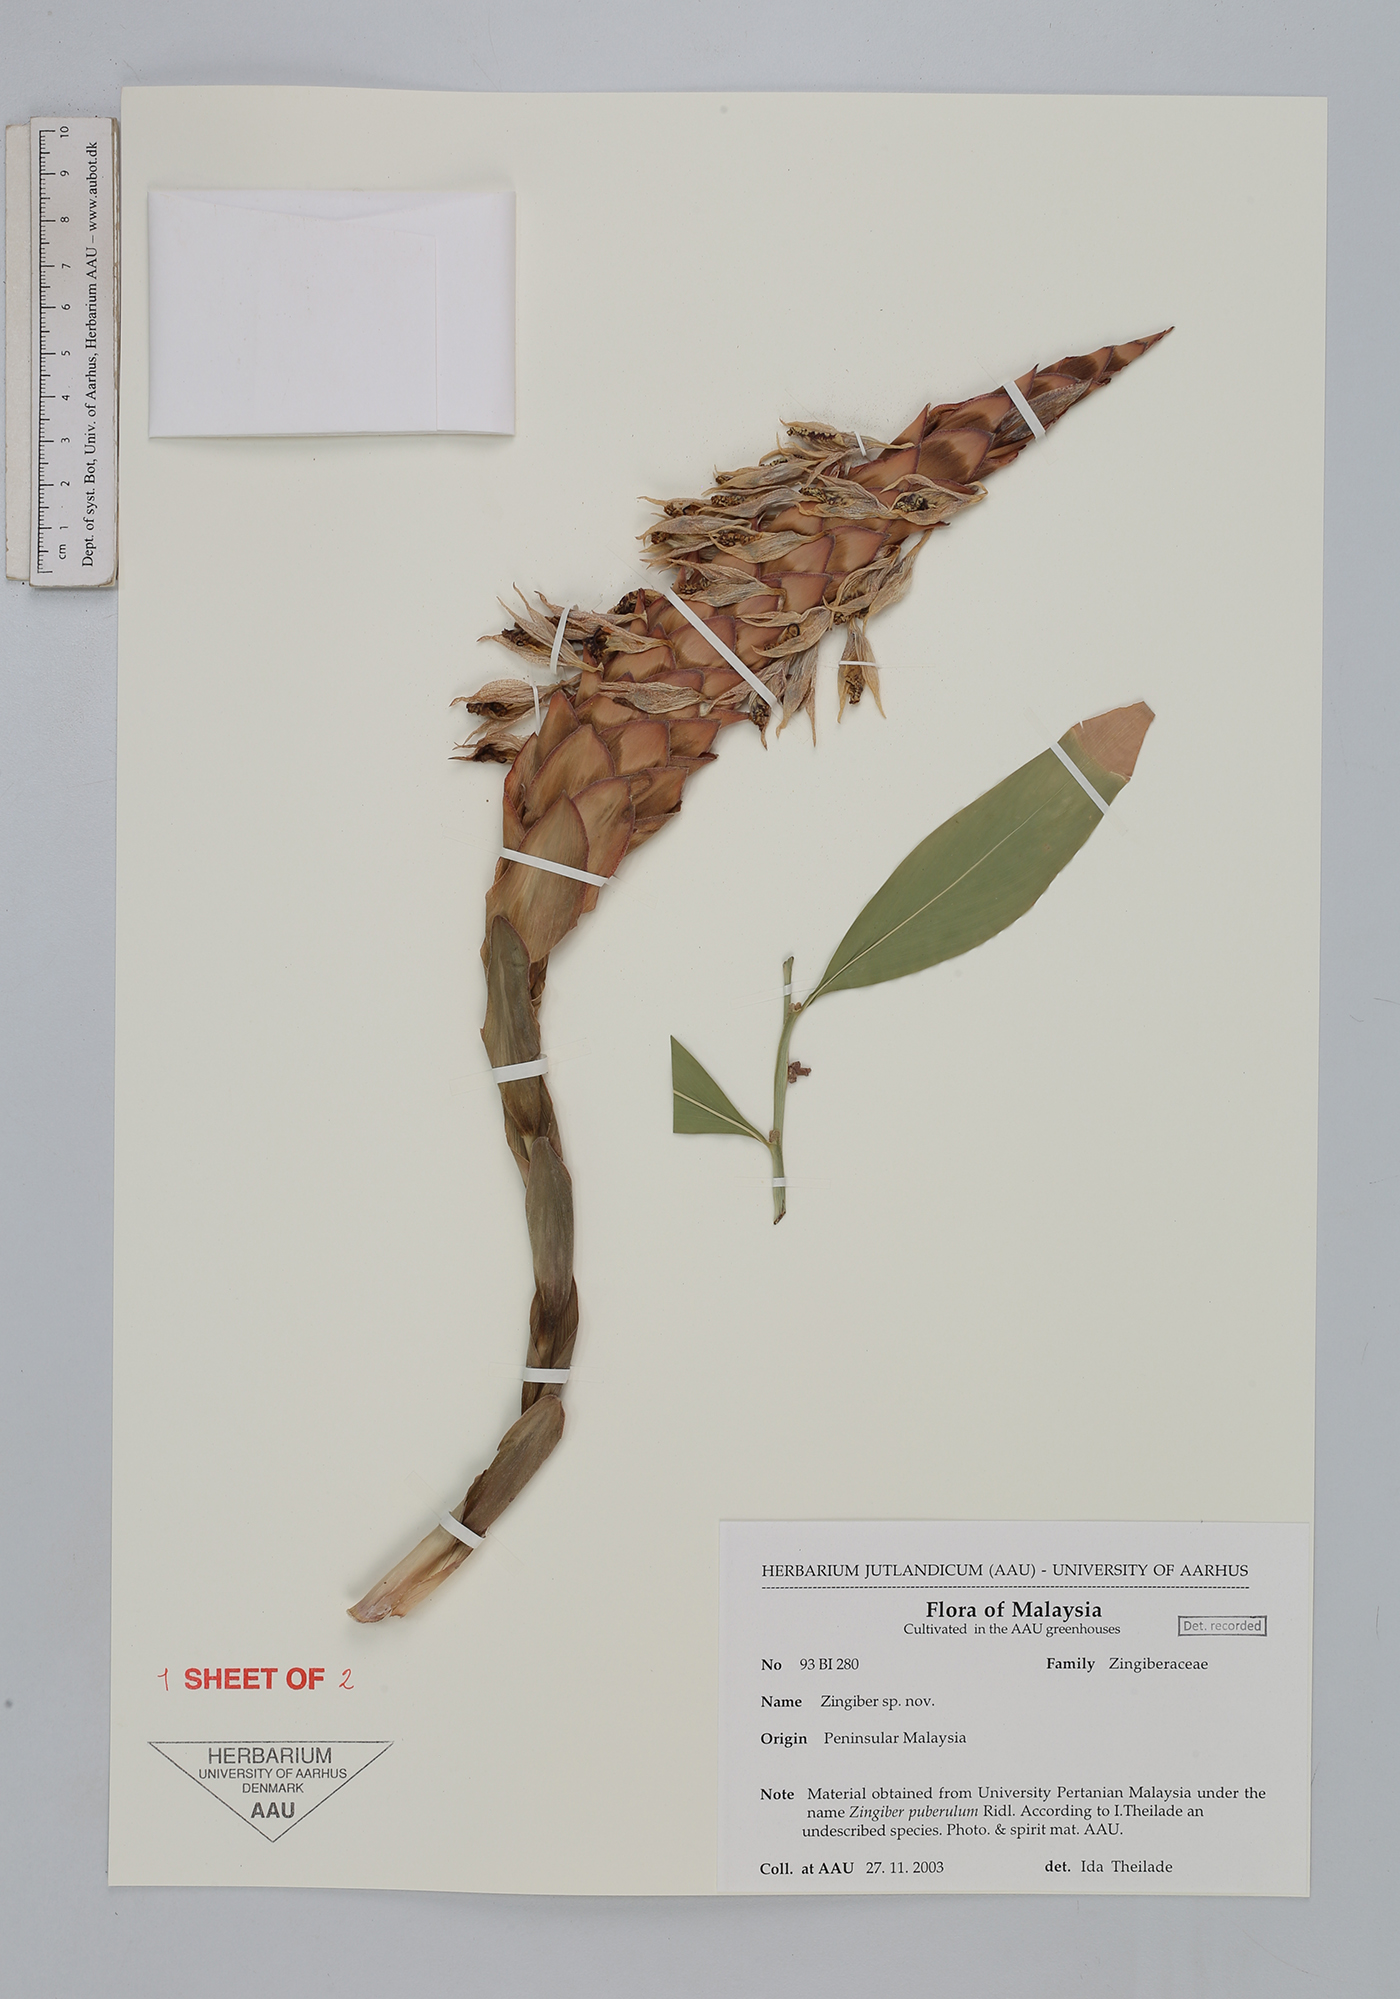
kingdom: Plantae
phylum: Tracheophyta
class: Liliopsida
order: Zingiberales
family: Zingiberaceae
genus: Zingiber
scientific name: Zingiber
